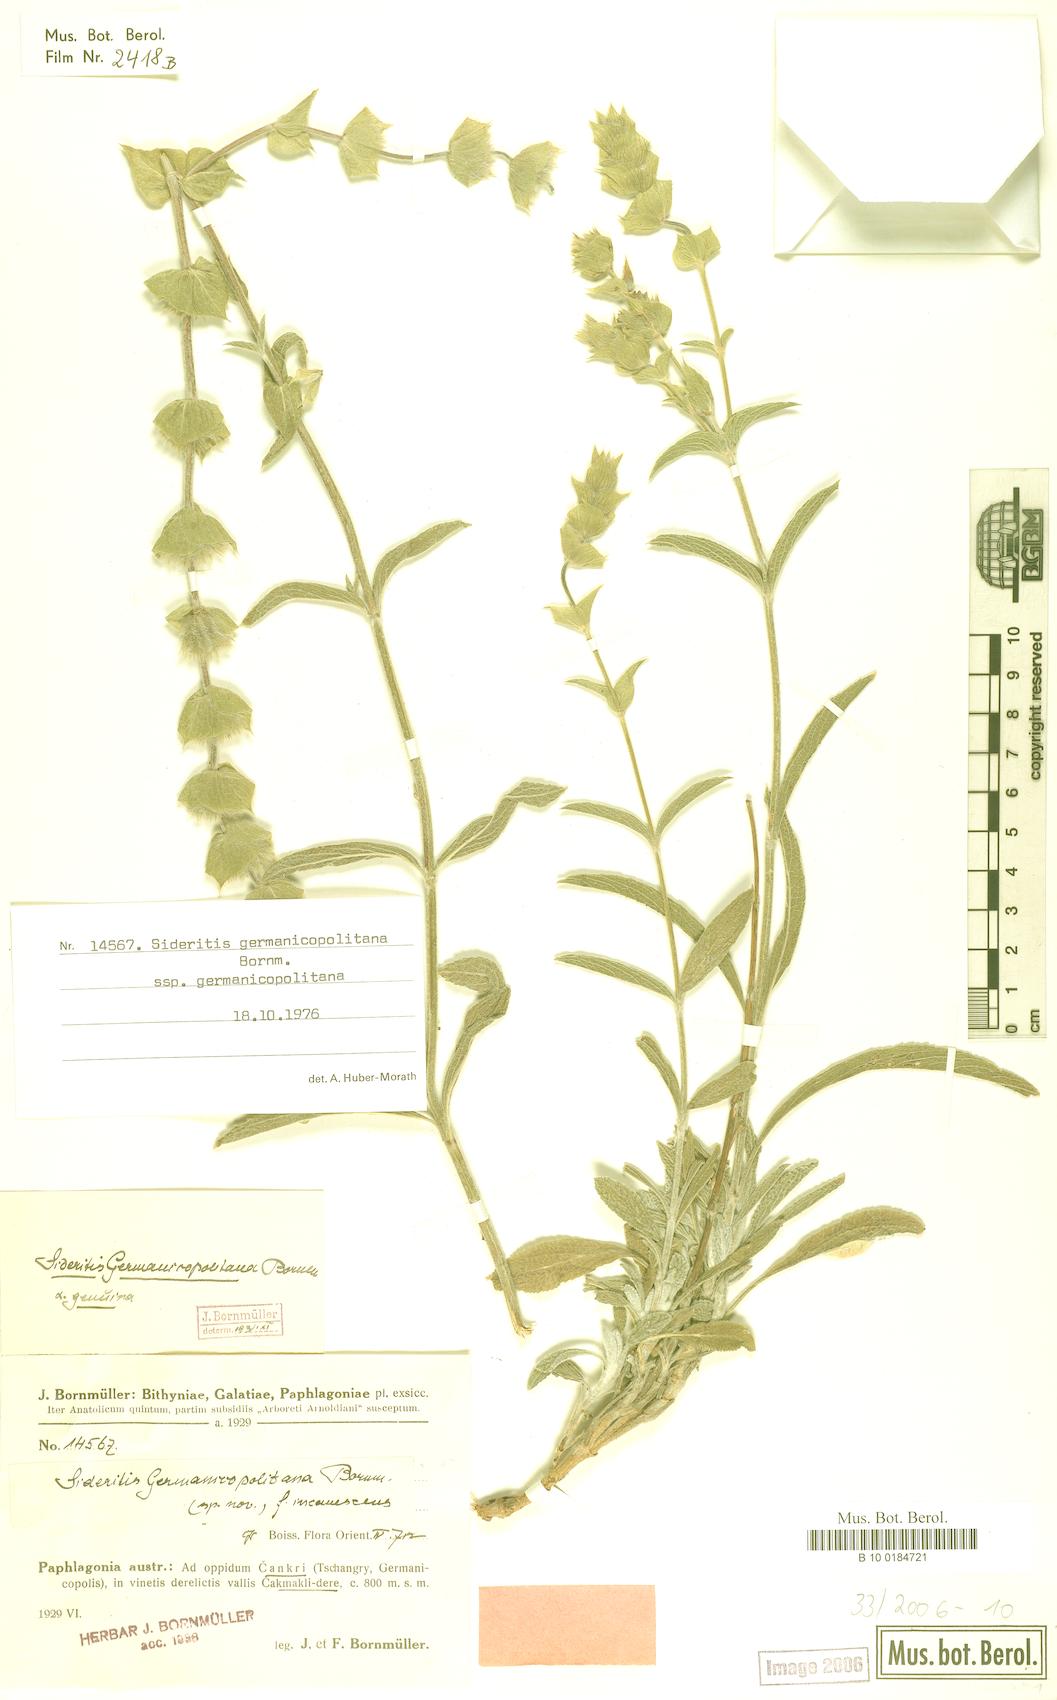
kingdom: Plantae
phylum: Tracheophyta
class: Magnoliopsida
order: Lamiales
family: Lamiaceae
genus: Sideritis
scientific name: Sideritis germanicopolitana
